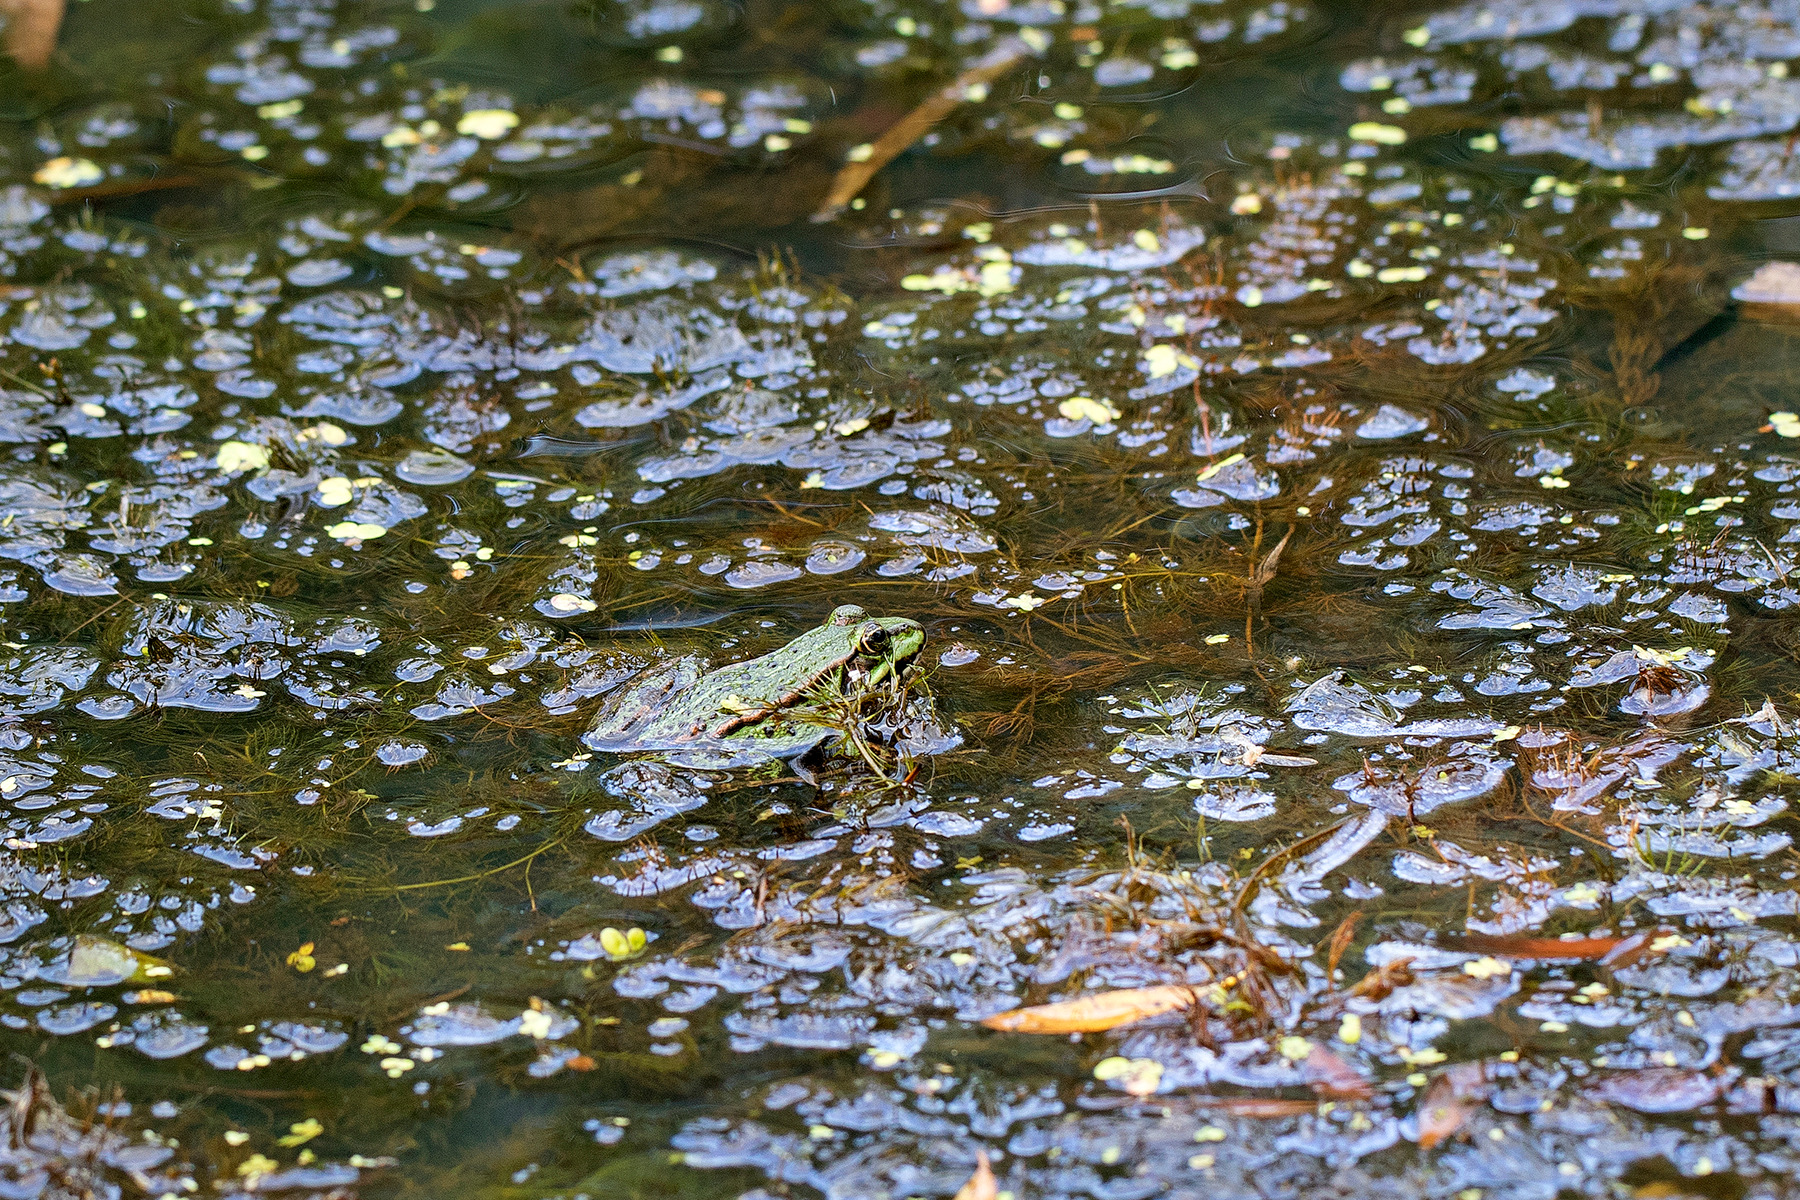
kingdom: Animalia
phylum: Chordata
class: Amphibia
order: Anura
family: Ranidae
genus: Pelophylax
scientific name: Pelophylax lessonae
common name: Grøn frø
